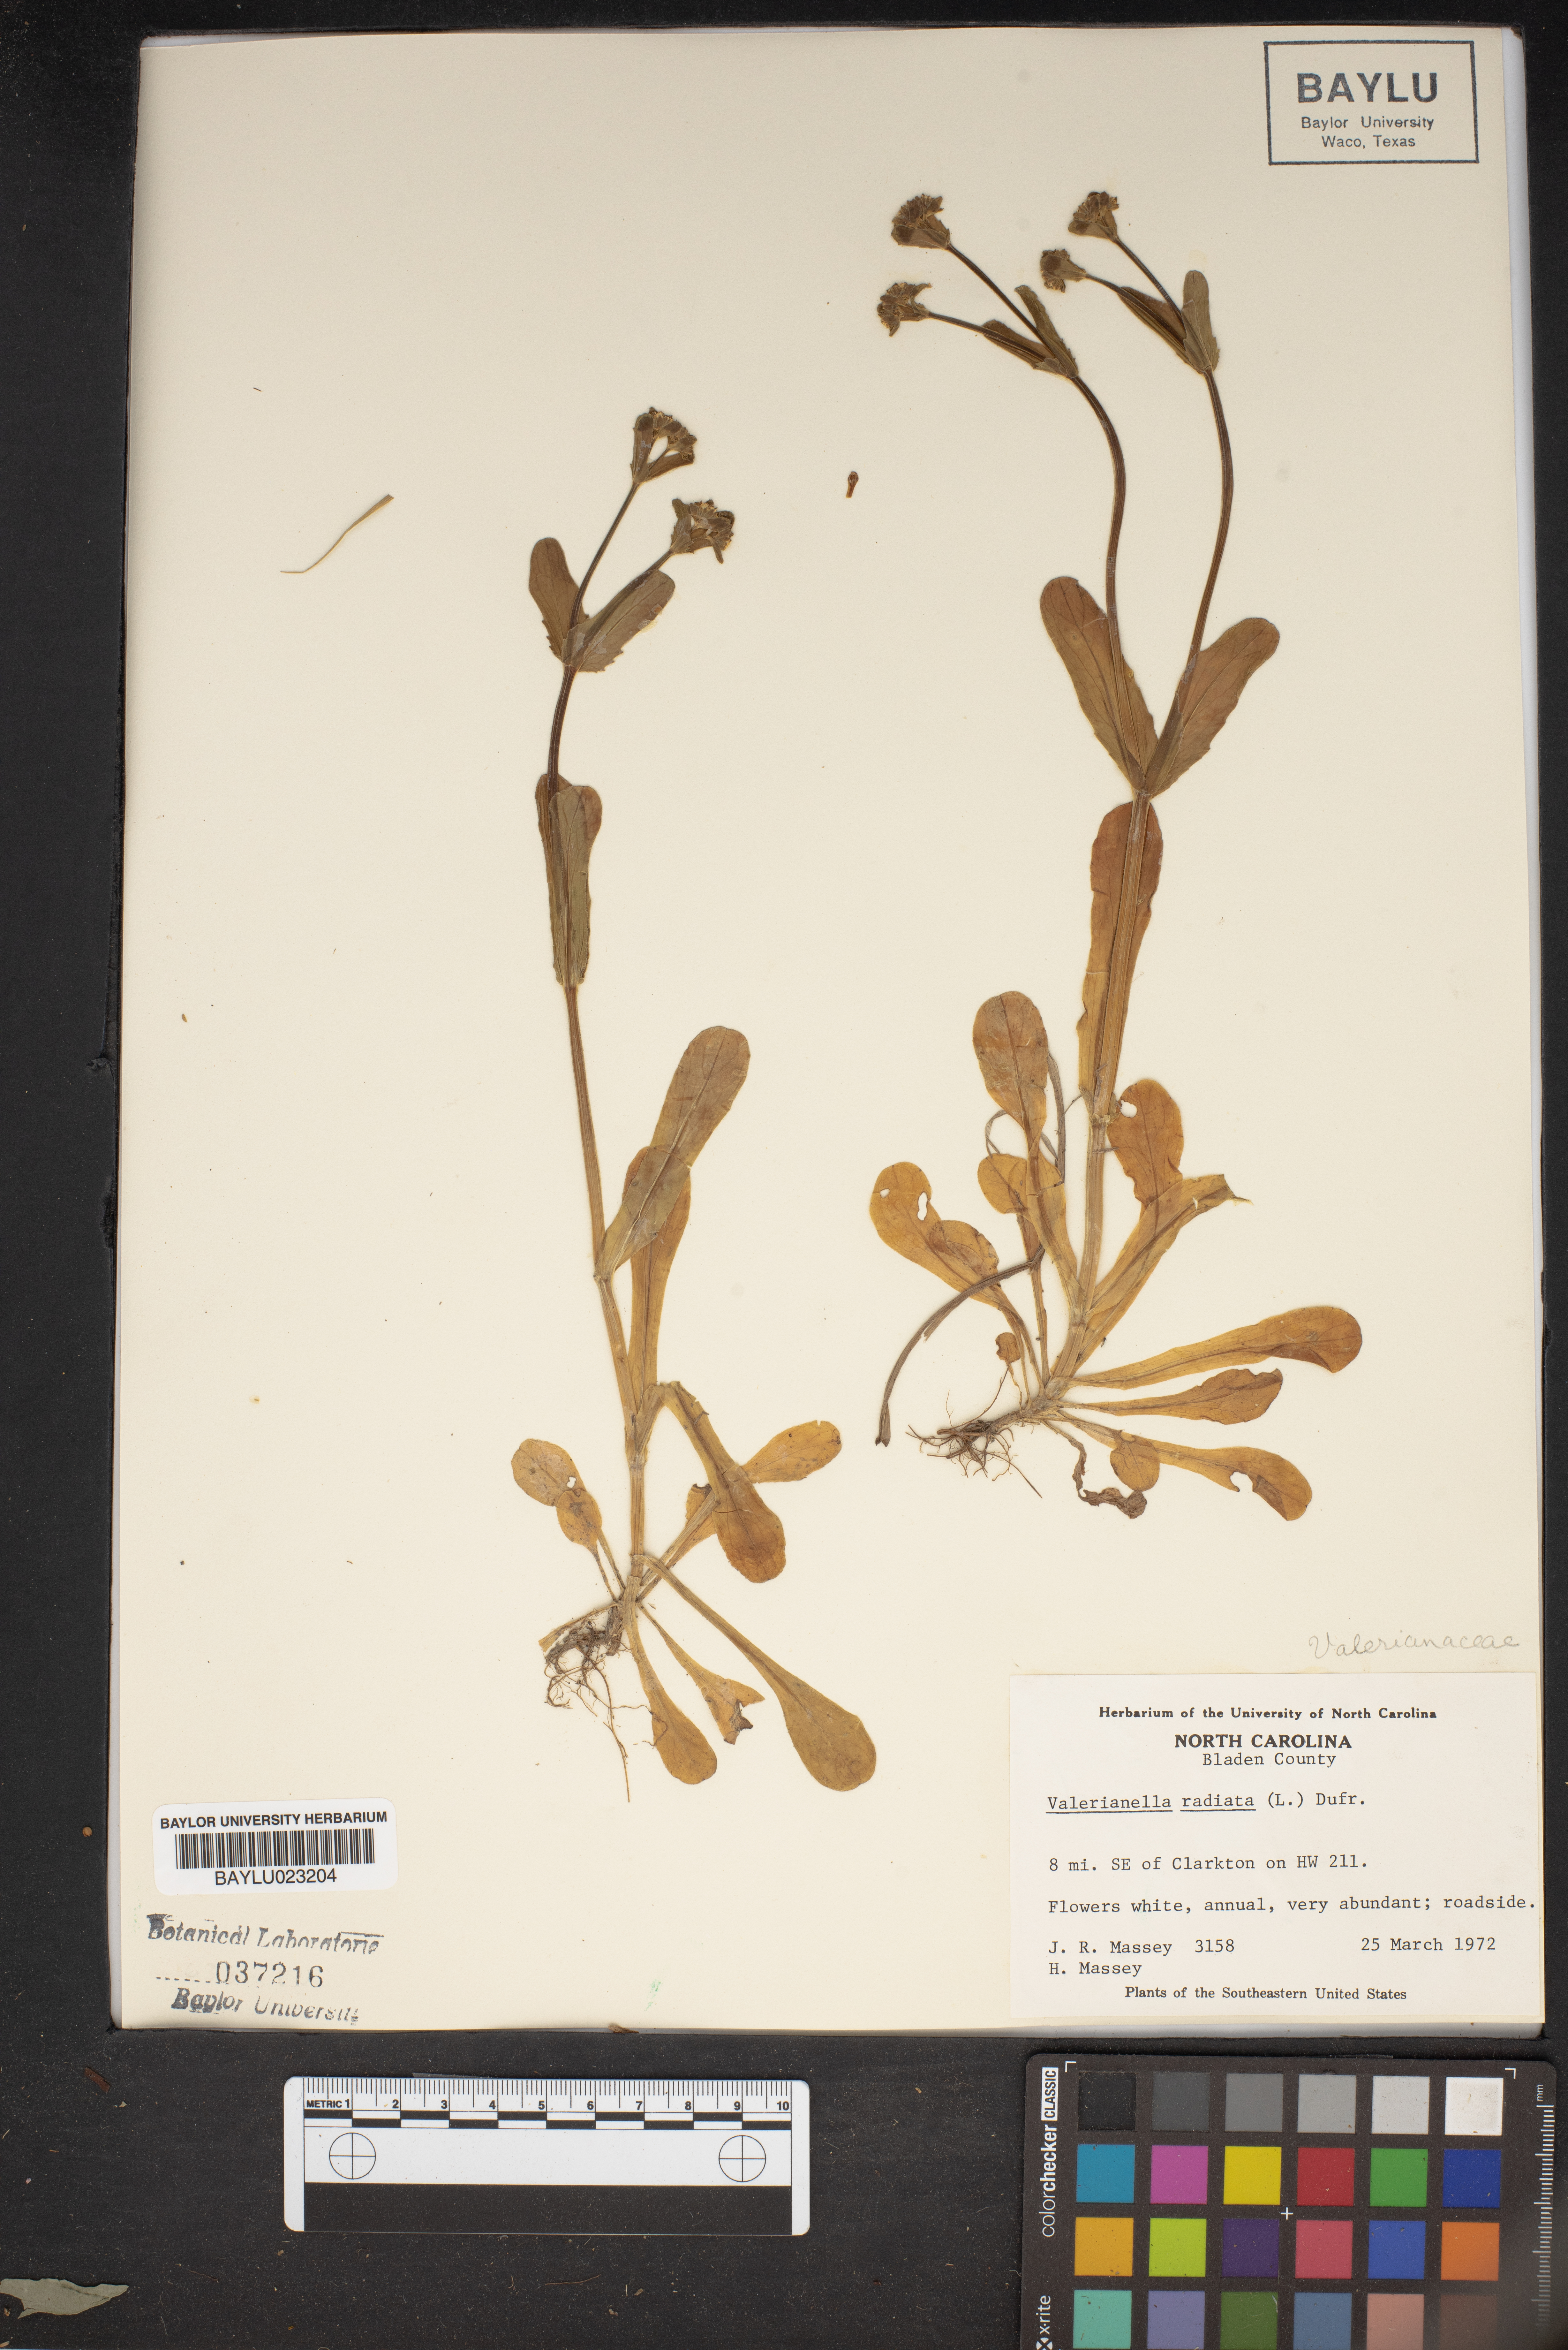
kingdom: Plantae
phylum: Tracheophyta
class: Magnoliopsida
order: Dipsacales
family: Caprifoliaceae
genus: Valerianella
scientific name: Valerianella radiata
